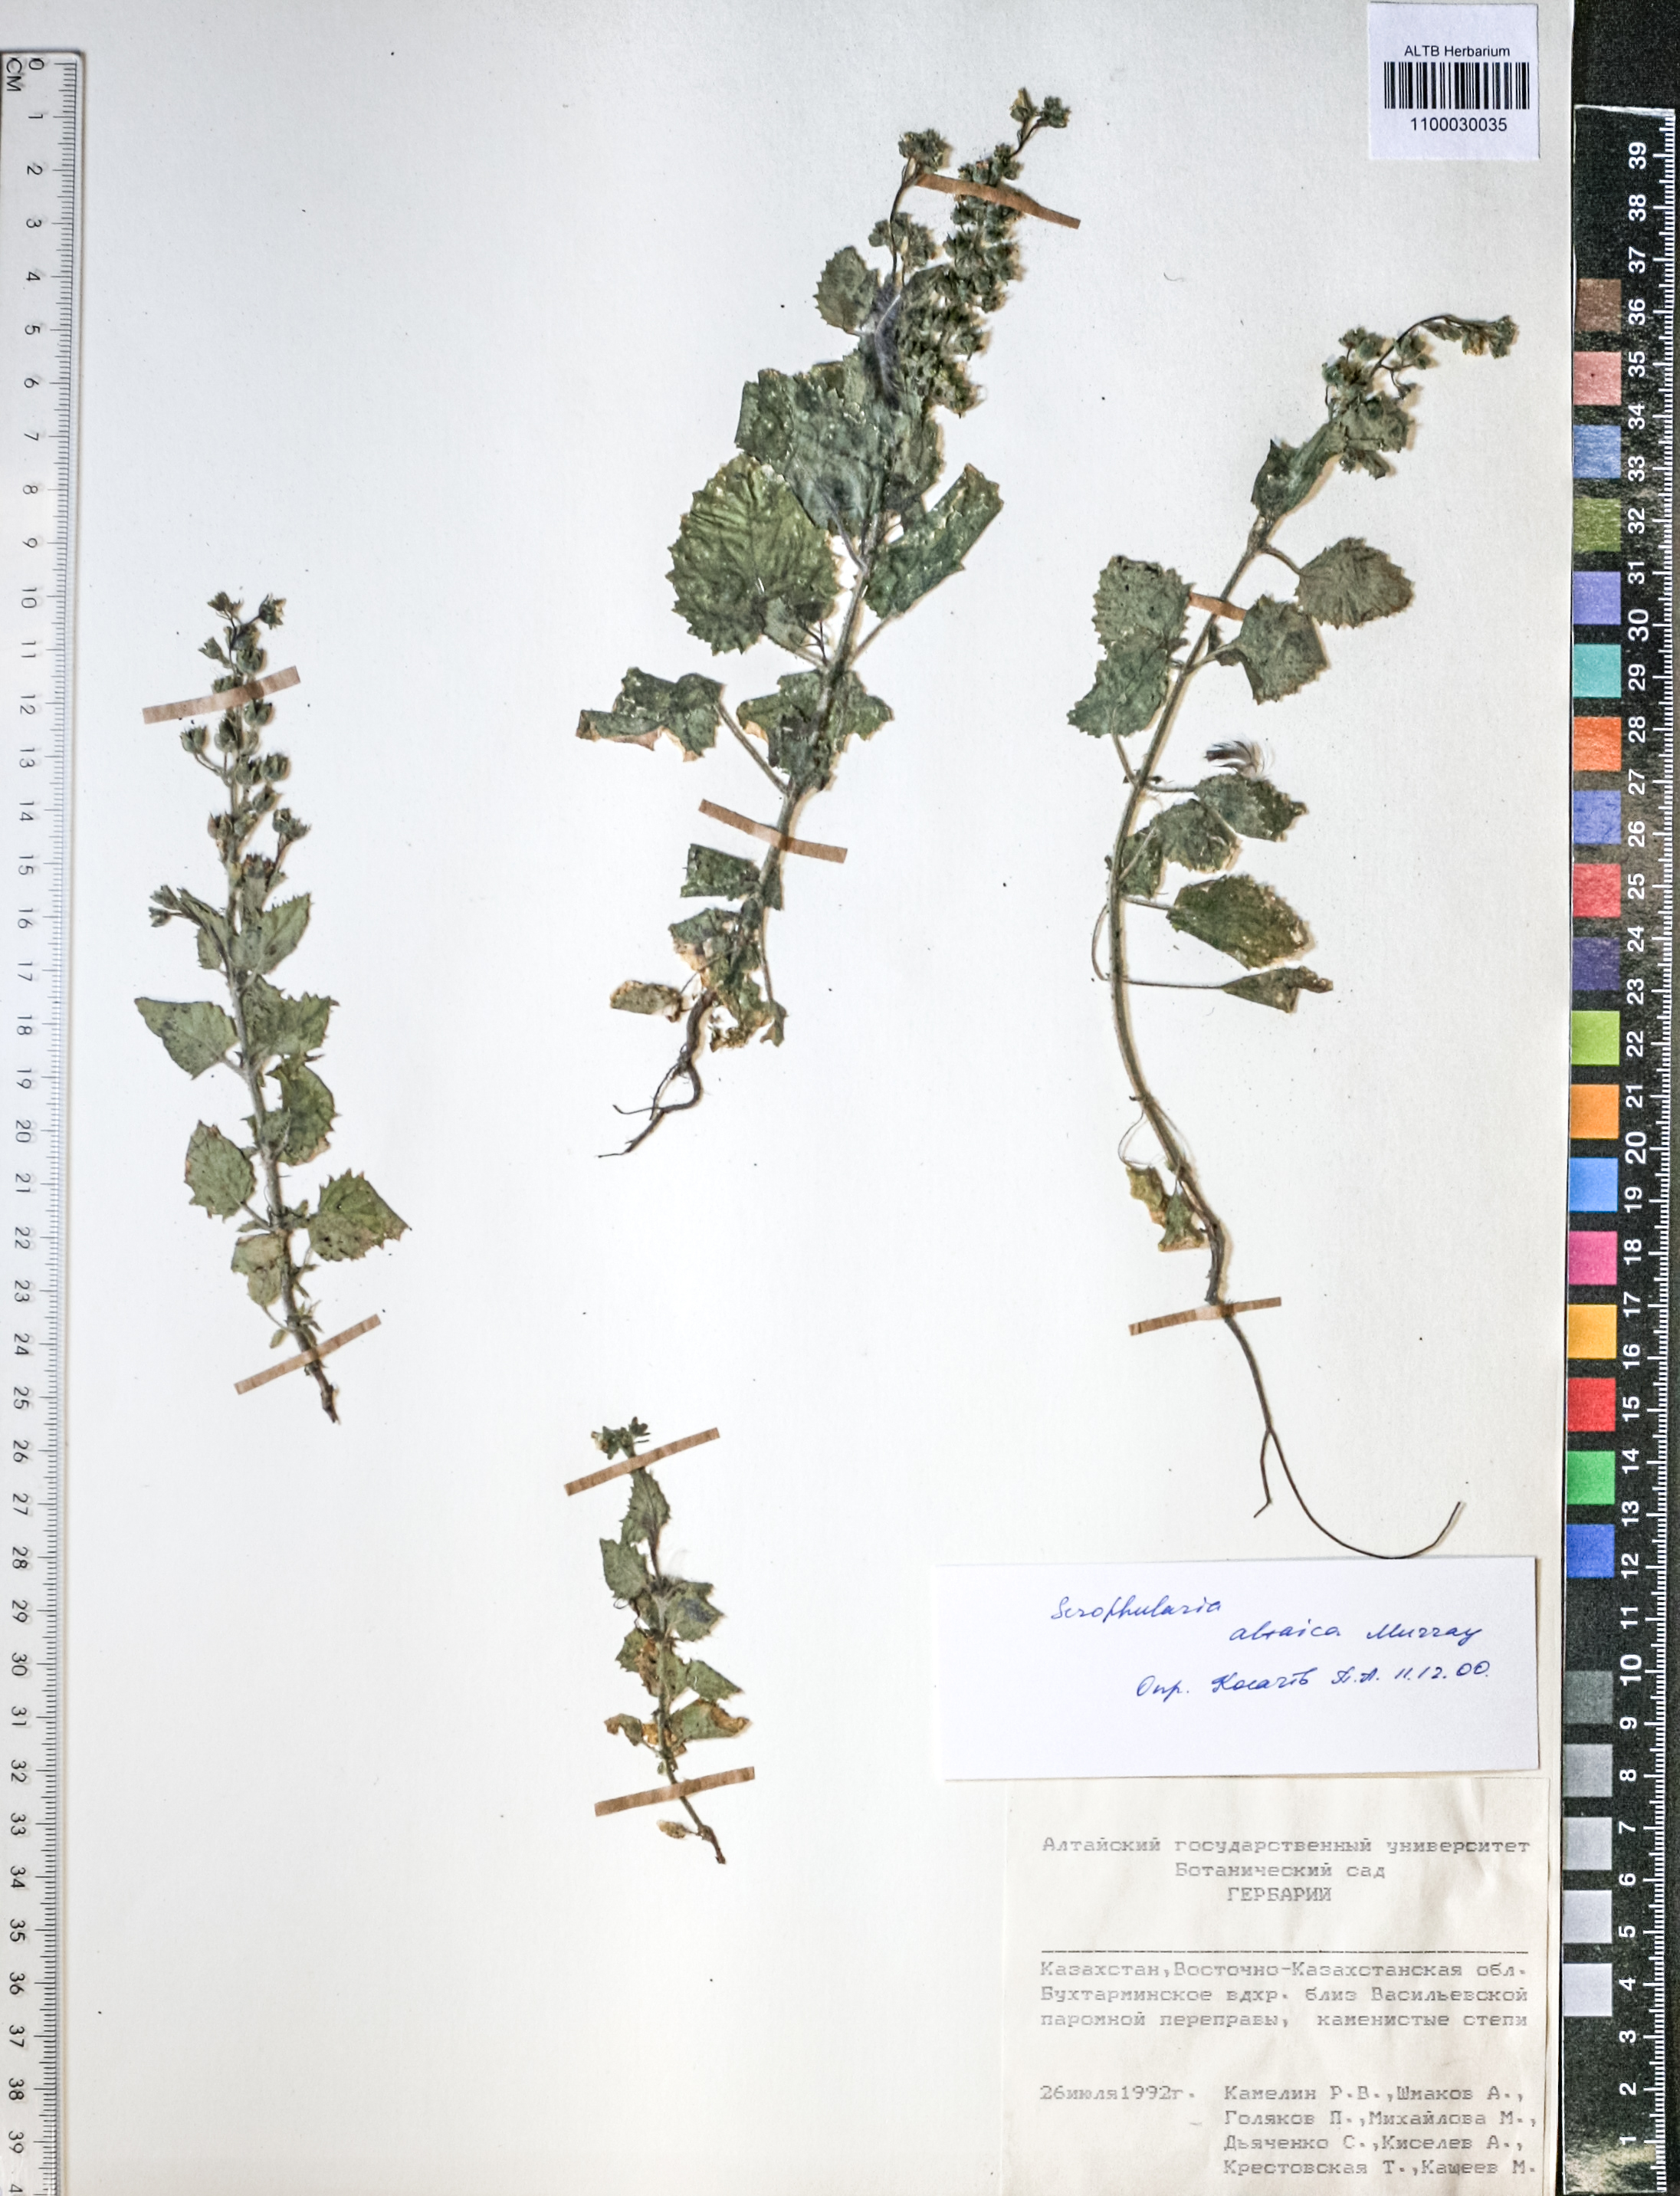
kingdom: Plantae
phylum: Tracheophyta
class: Magnoliopsida
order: Lamiales
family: Scrophulariaceae
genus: Scrophularia
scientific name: Scrophularia altaica
